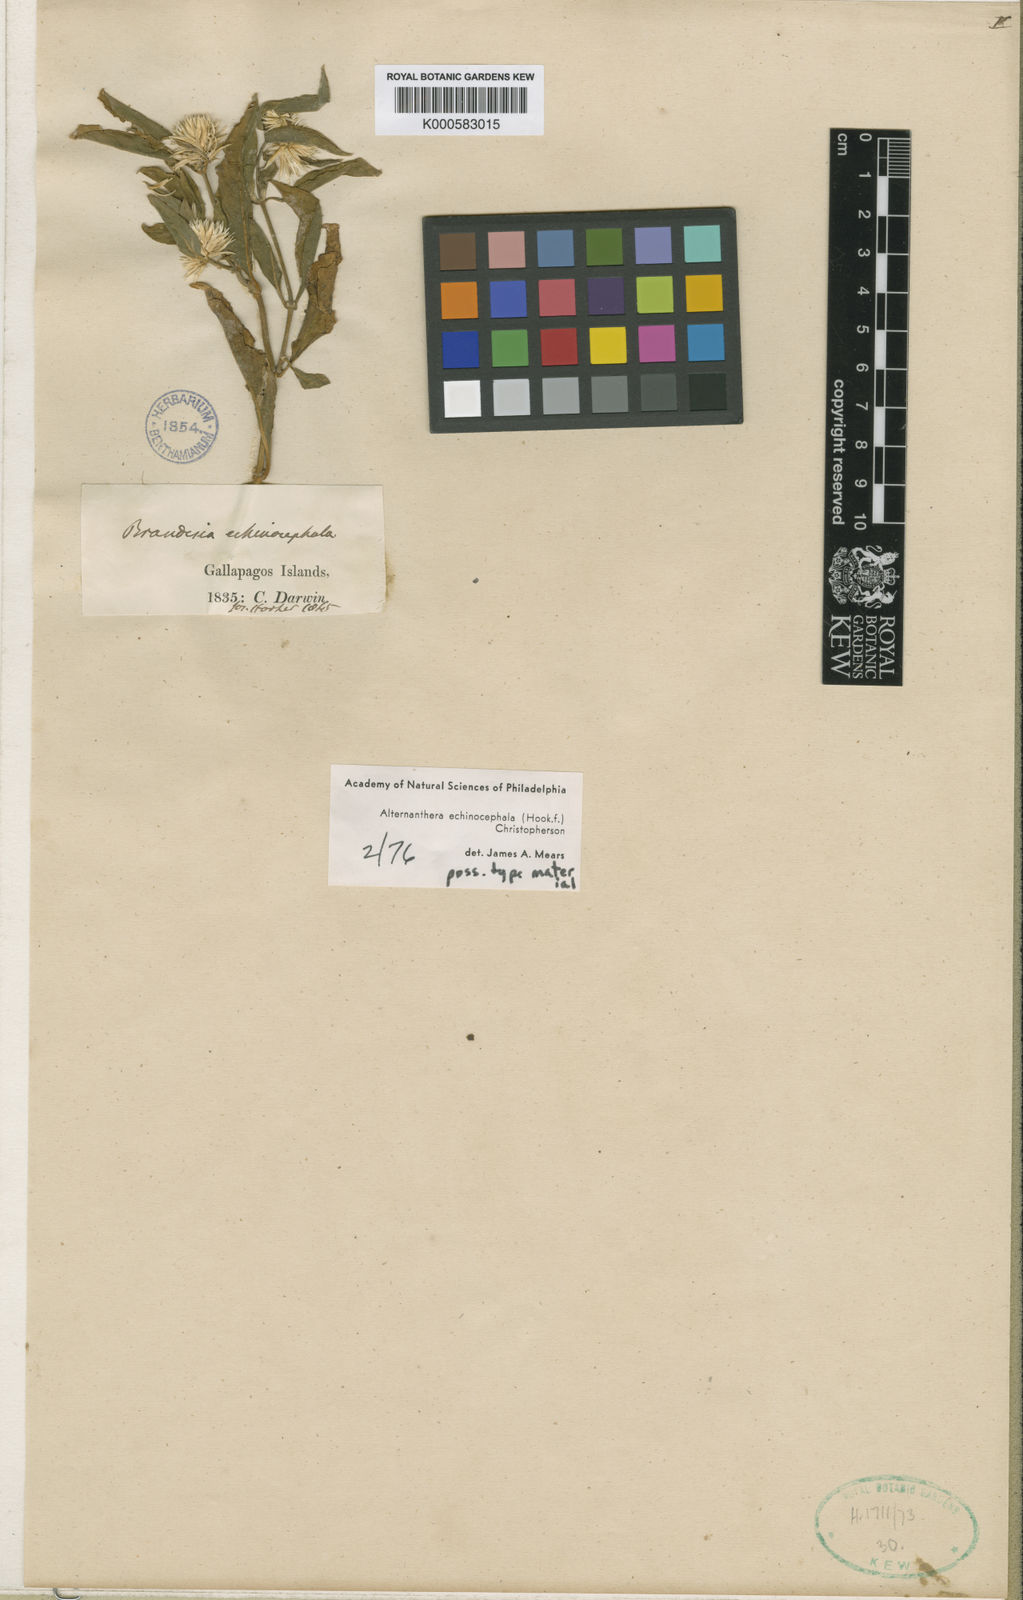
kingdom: Plantae
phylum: Tracheophyta
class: Magnoliopsida
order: Caryophyllales
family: Amaranthaceae
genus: Alternanthera
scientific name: Alternanthera echinocephala
